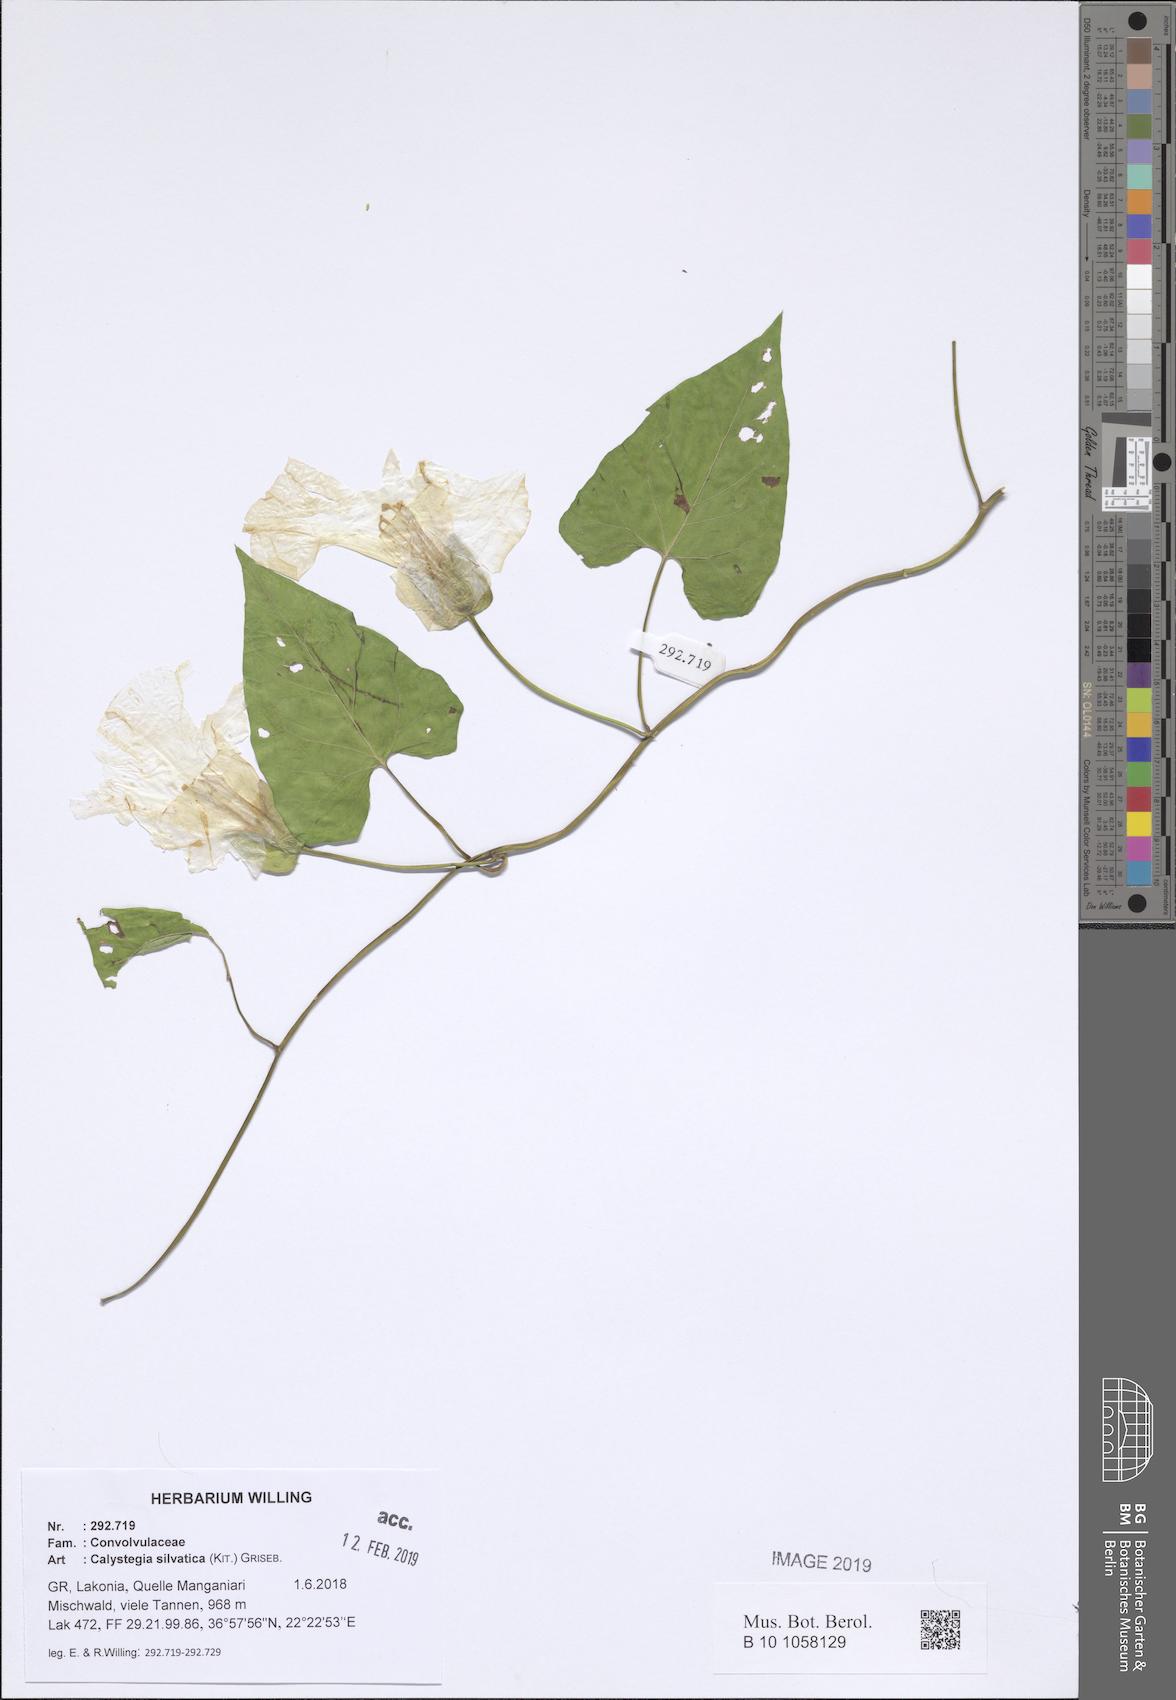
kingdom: Plantae
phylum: Tracheophyta
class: Magnoliopsida
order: Solanales
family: Convolvulaceae
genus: Calystegia
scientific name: Calystegia silvatica
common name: Large bindweed
